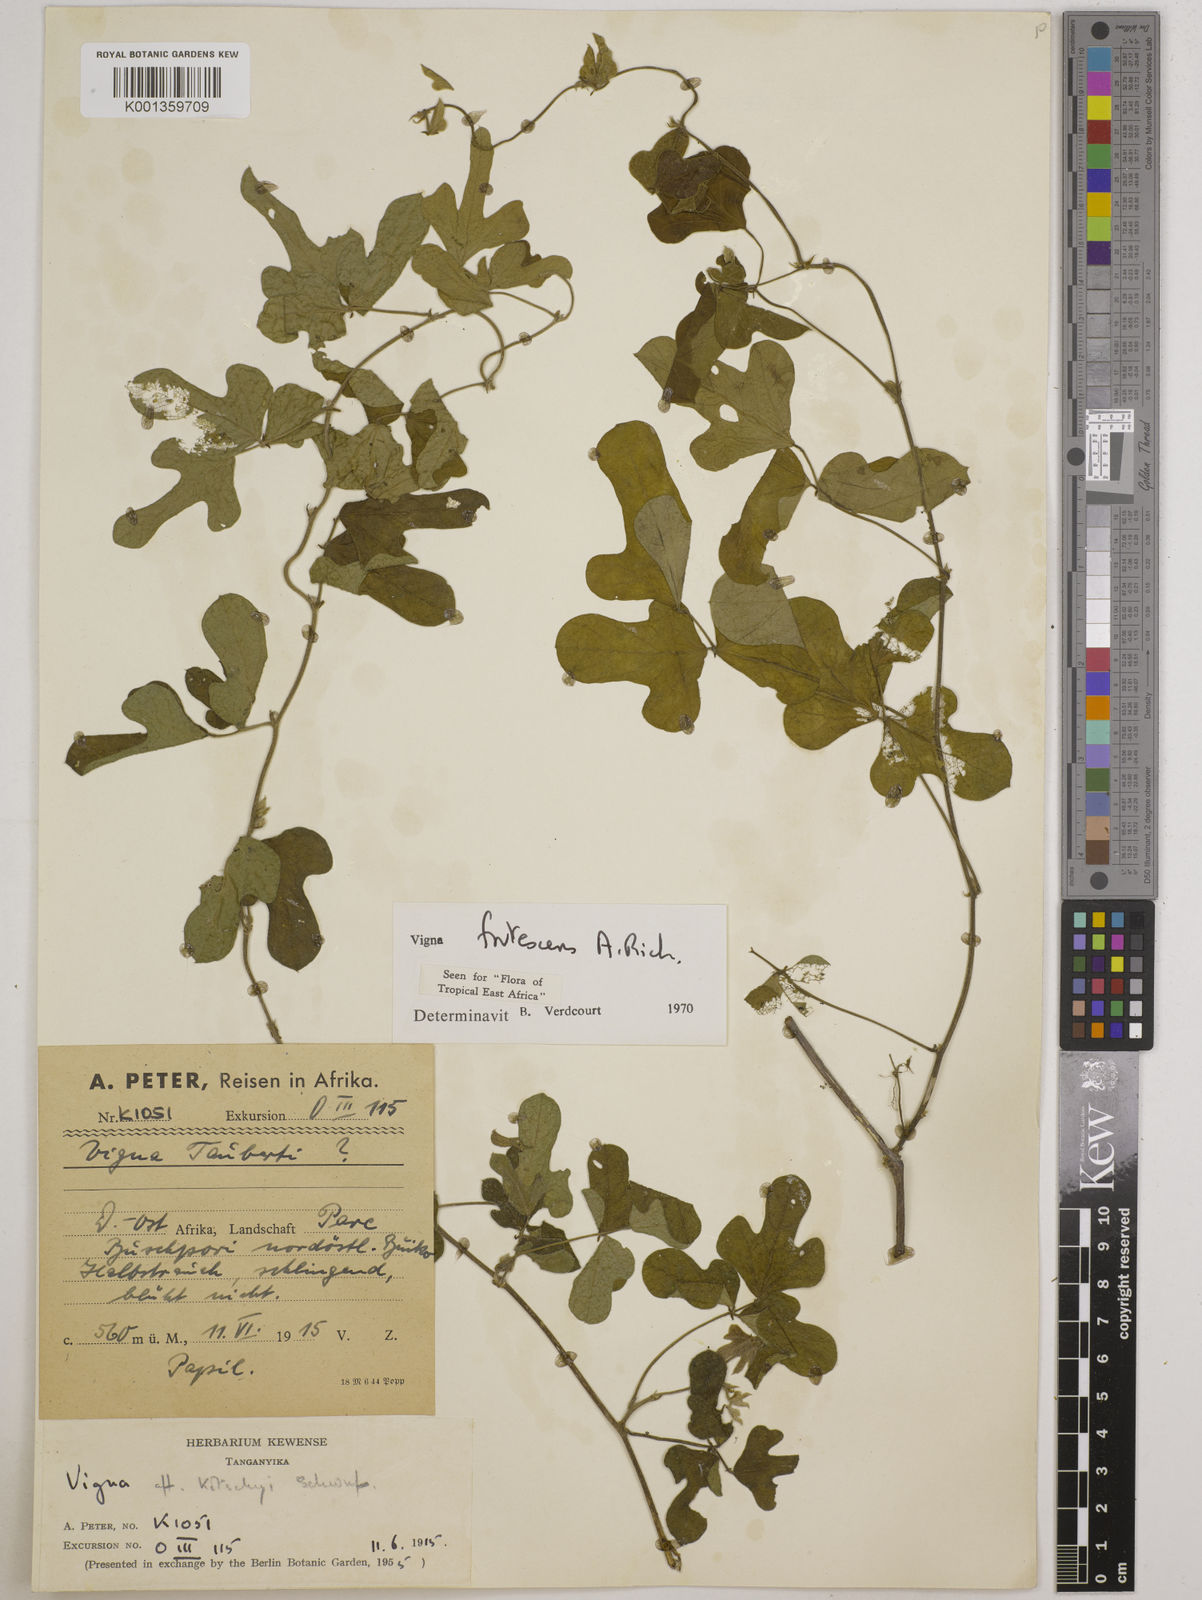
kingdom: Plantae
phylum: Tracheophyta
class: Magnoliopsida
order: Fabales
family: Fabaceae
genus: Vigna
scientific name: Vigna frutescens
